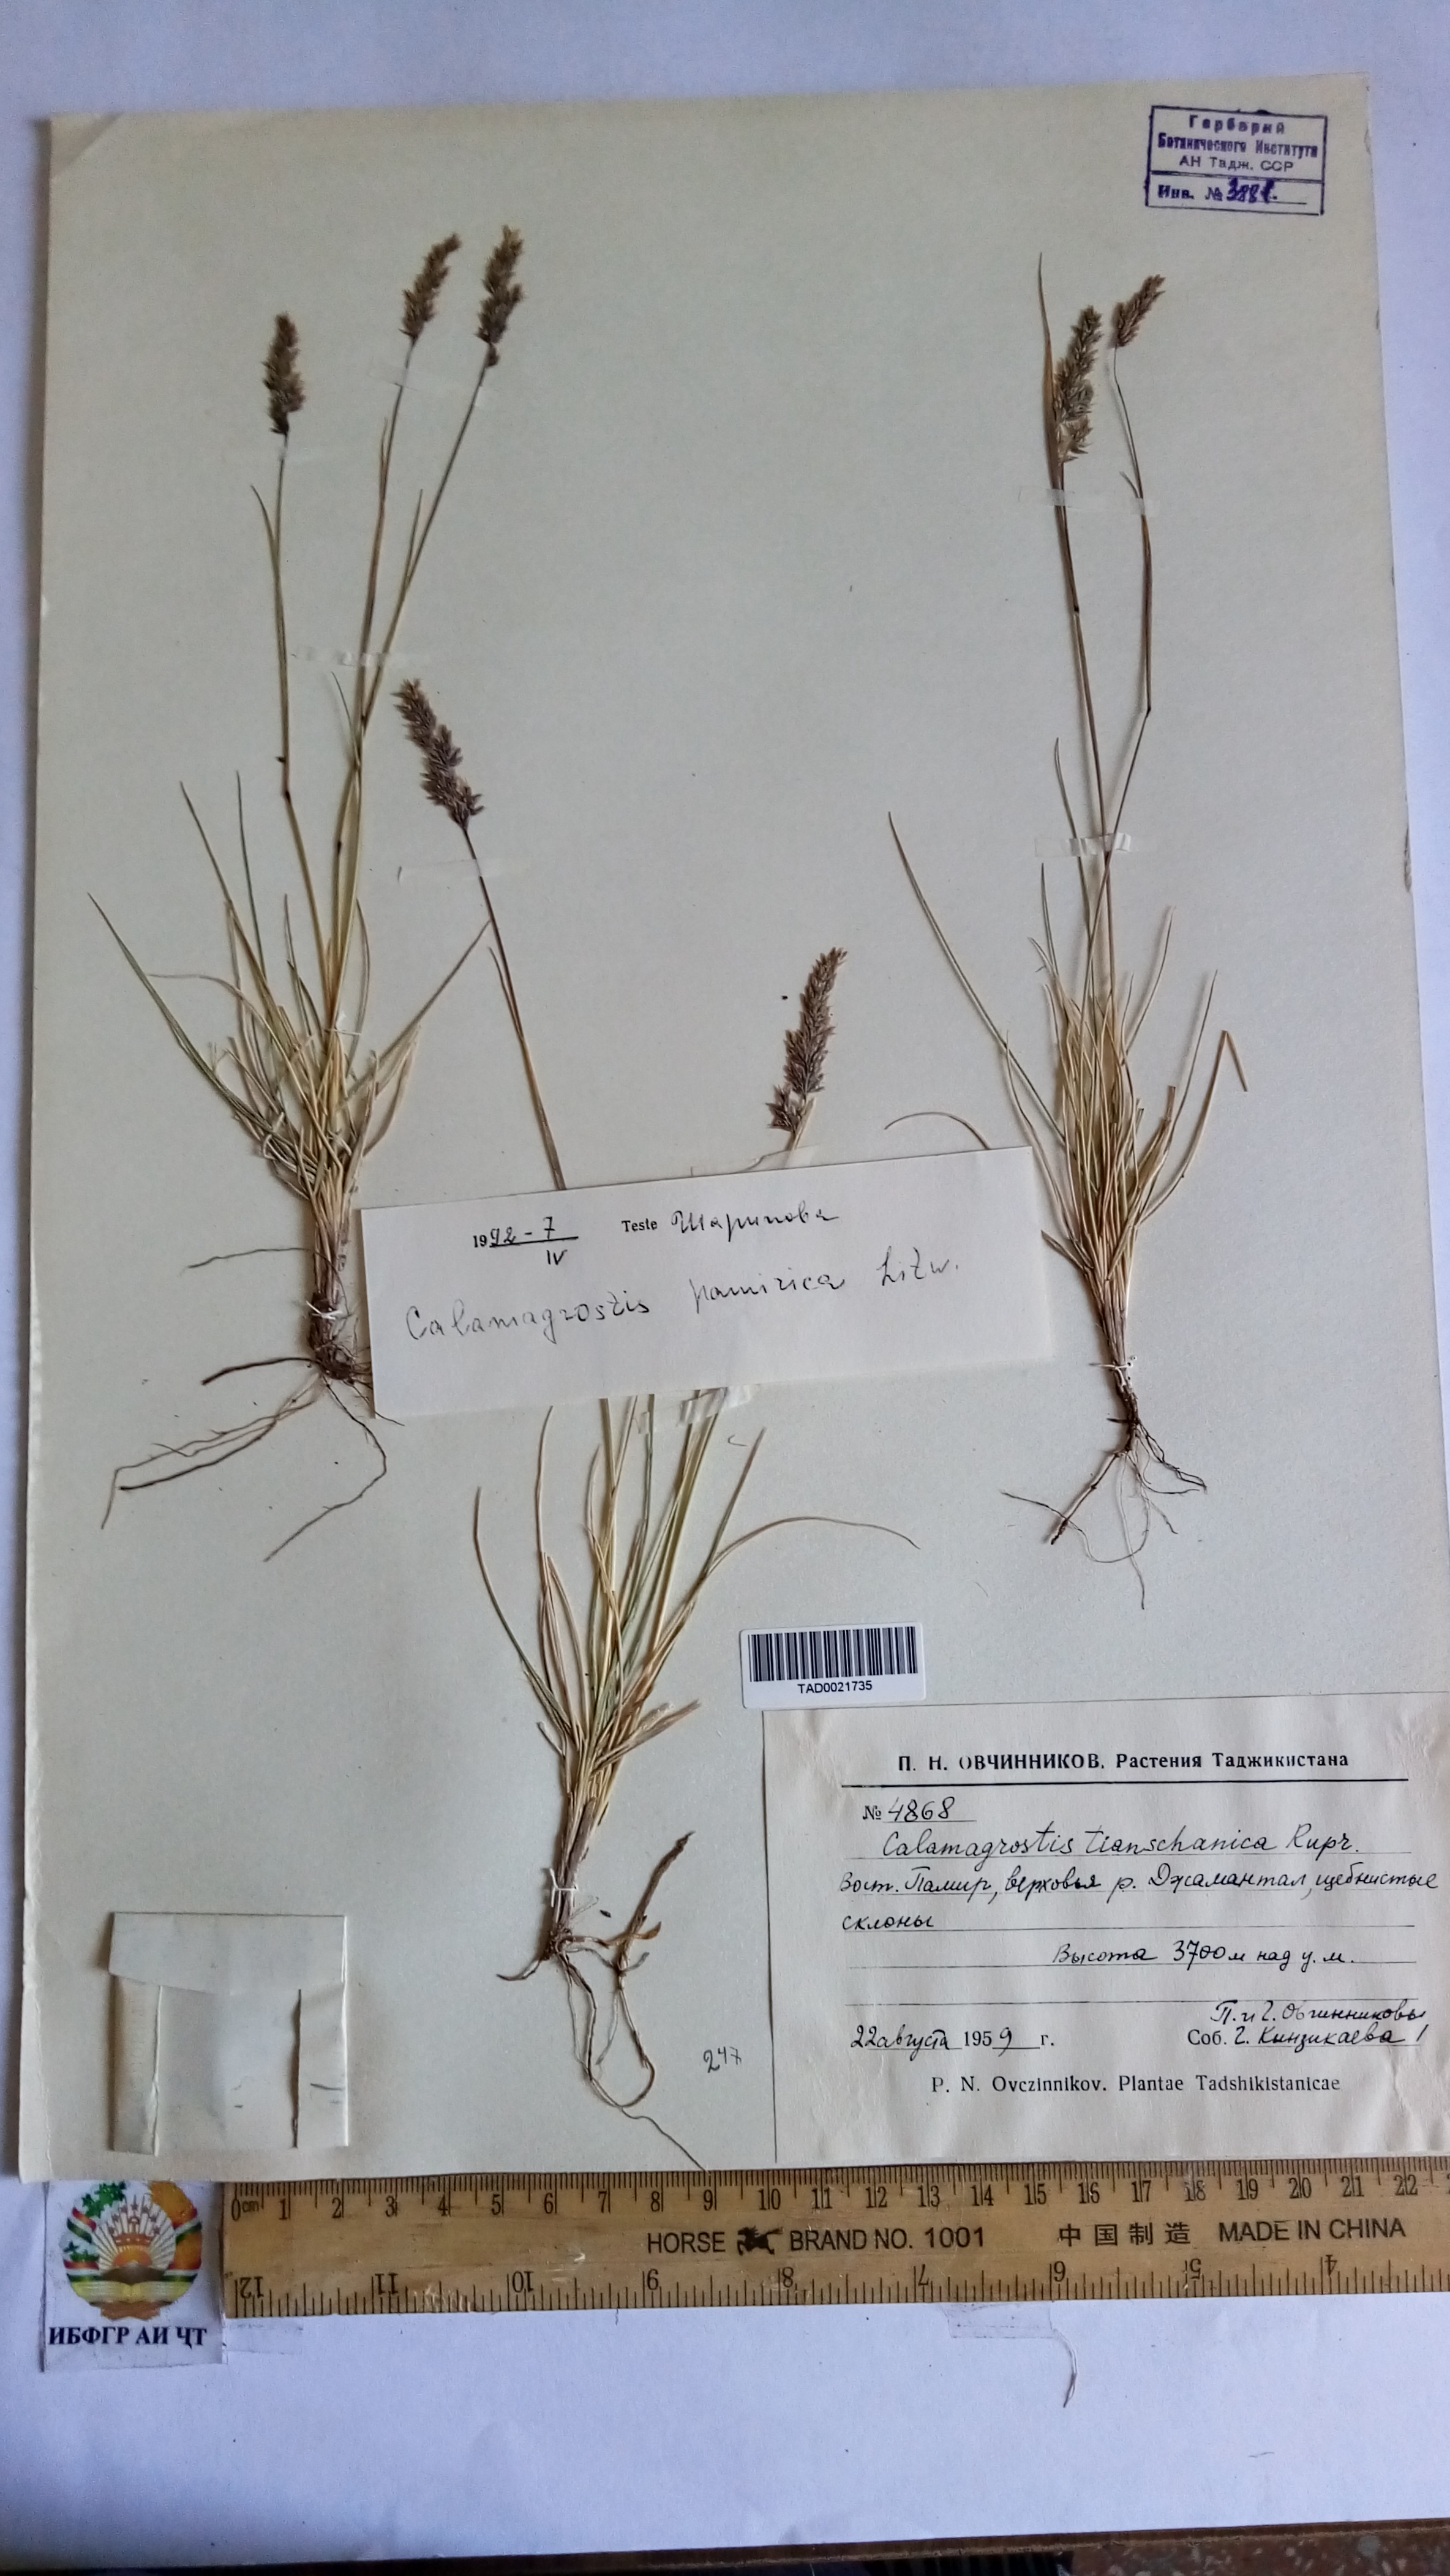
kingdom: Plantae
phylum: Tracheophyta
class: Liliopsida
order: Poales
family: Poaceae
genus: Calamagrostis
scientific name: Calamagrostis tianschanica
